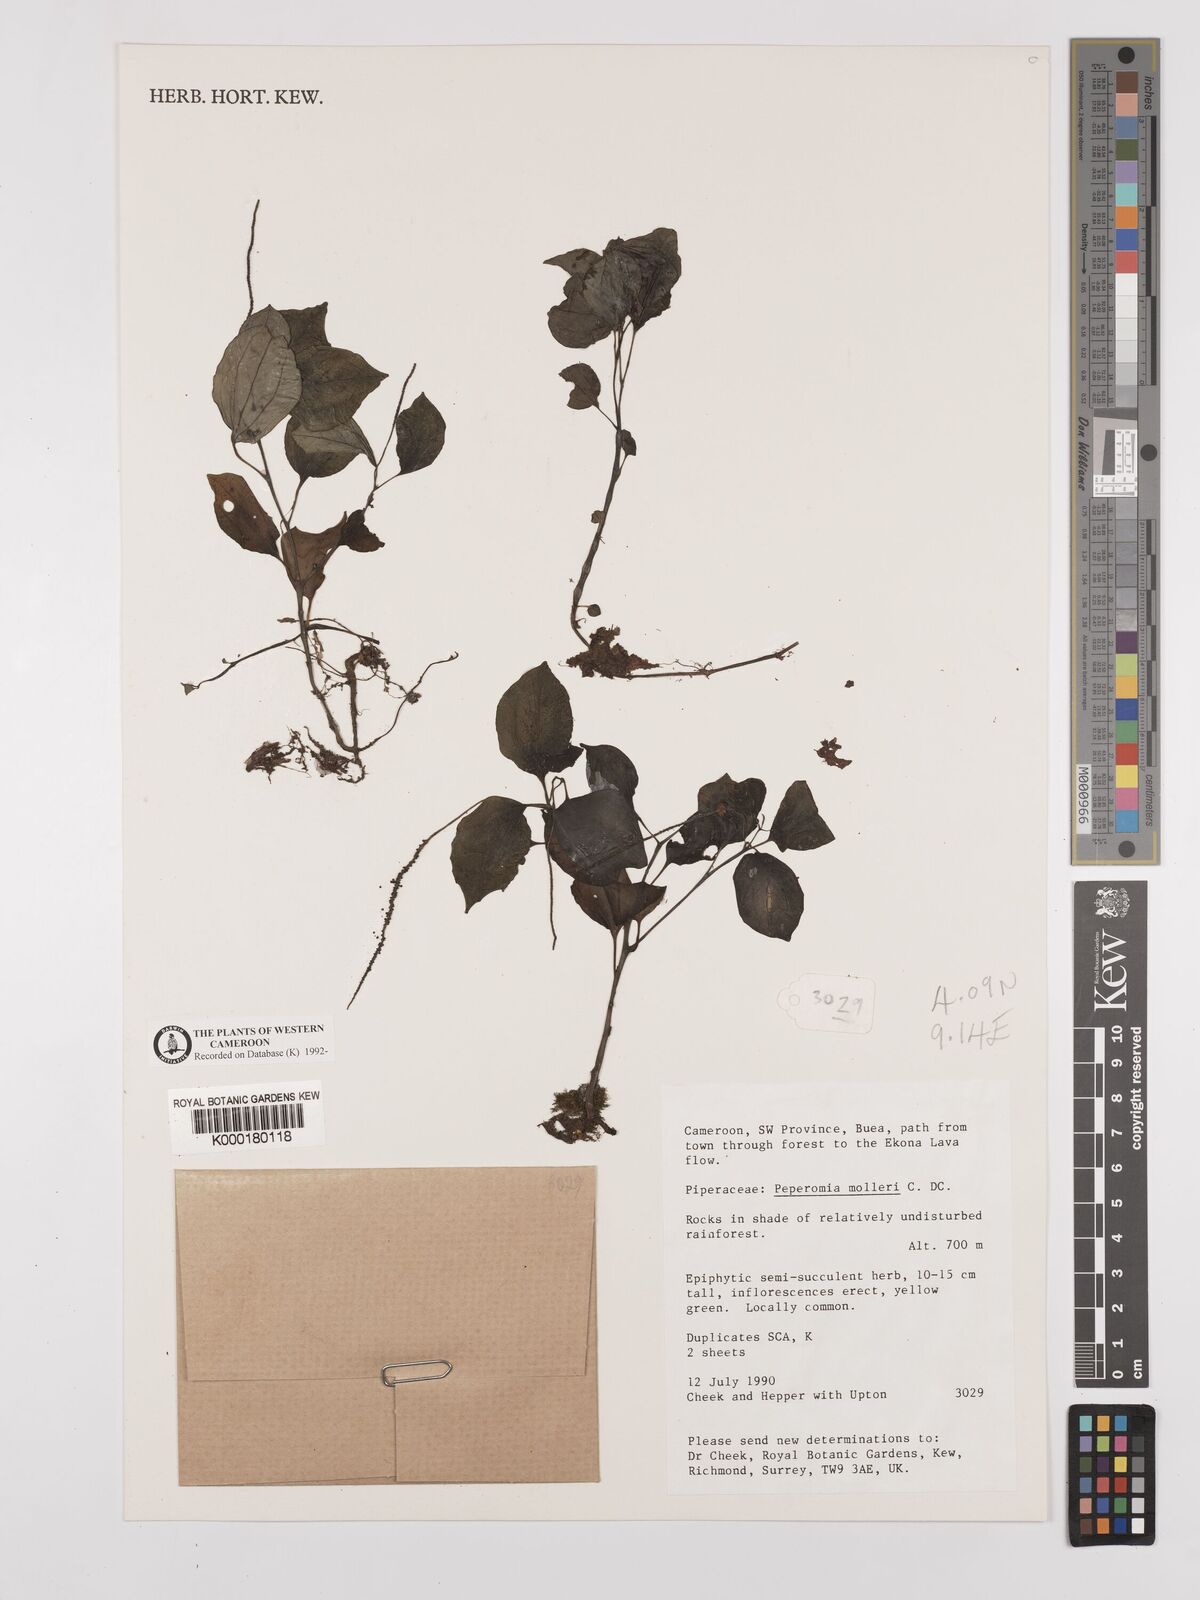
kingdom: Plantae
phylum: Tracheophyta
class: Magnoliopsida
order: Piperales
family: Piperaceae
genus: Peperomia
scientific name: Peperomia molleri
